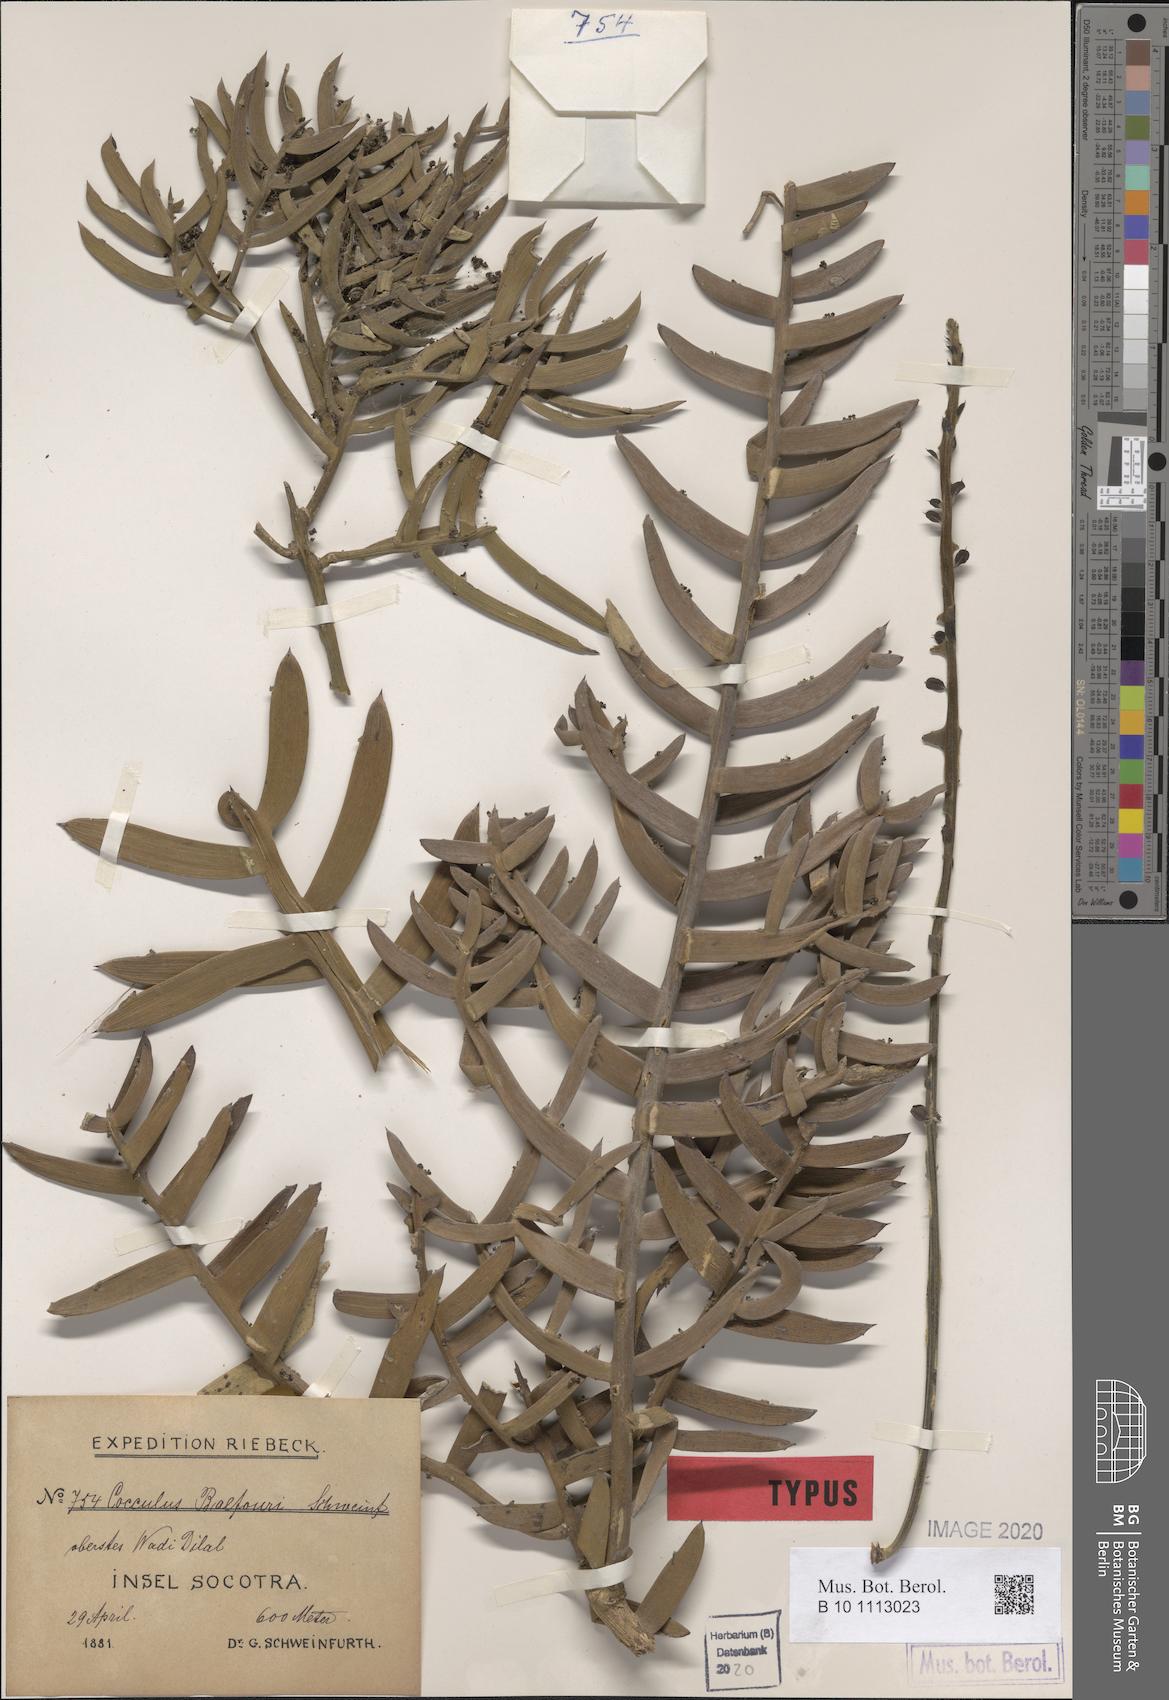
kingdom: Plantae
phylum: Tracheophyta
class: Magnoliopsida
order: Ranunculales
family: Menispermaceae
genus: Cocculus
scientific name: Cocculus balfourii
